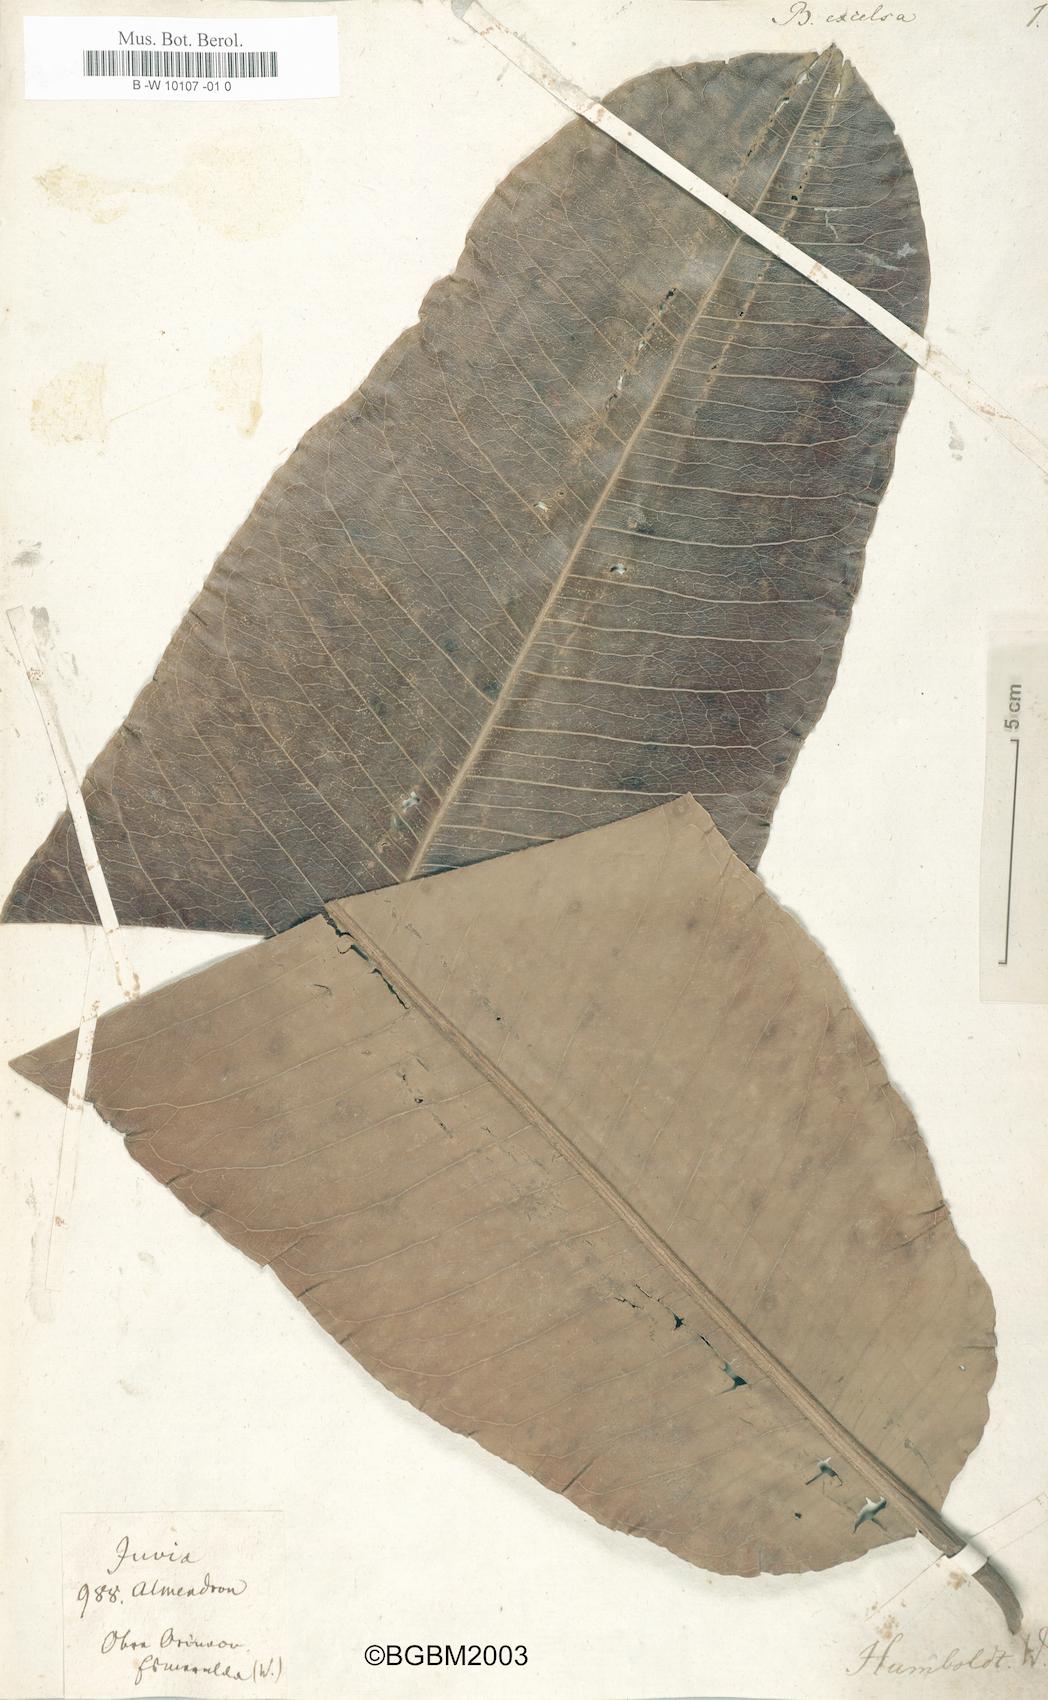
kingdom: Plantae
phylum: Tracheophyta
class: Magnoliopsida
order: Ericales
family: Lecythidaceae
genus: Bertholletia
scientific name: Bertholletia excelsa
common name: Brazil-nut tree
